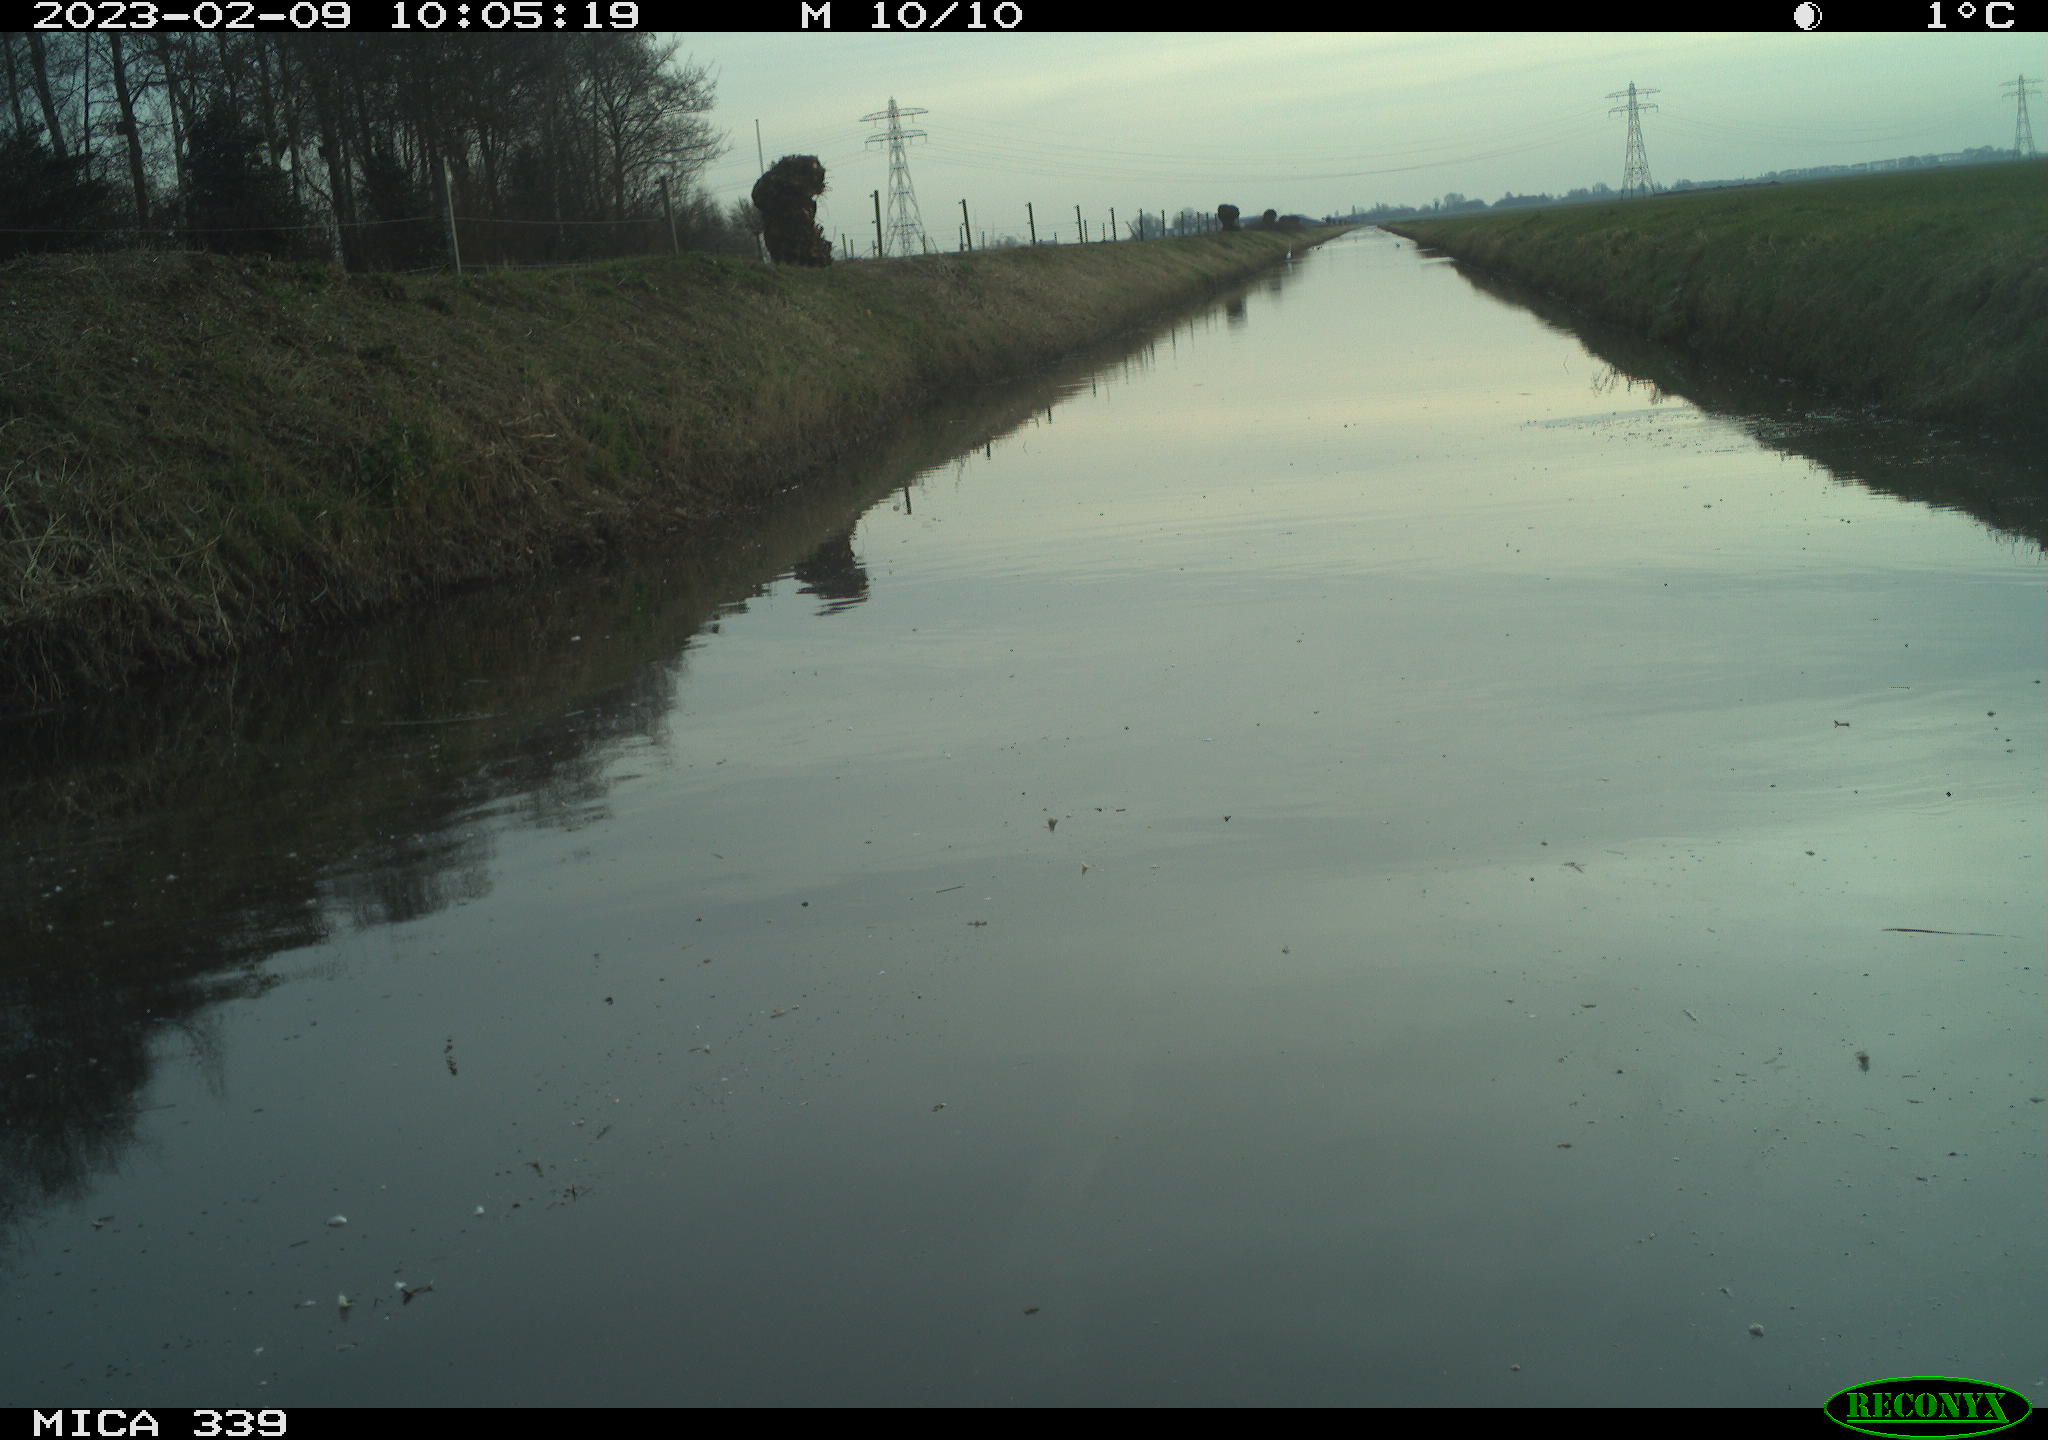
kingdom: Animalia
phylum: Chordata
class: Aves
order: Pelecaniformes
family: Ardeidae
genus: Ardea
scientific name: Ardea cinerea
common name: Grey heron
